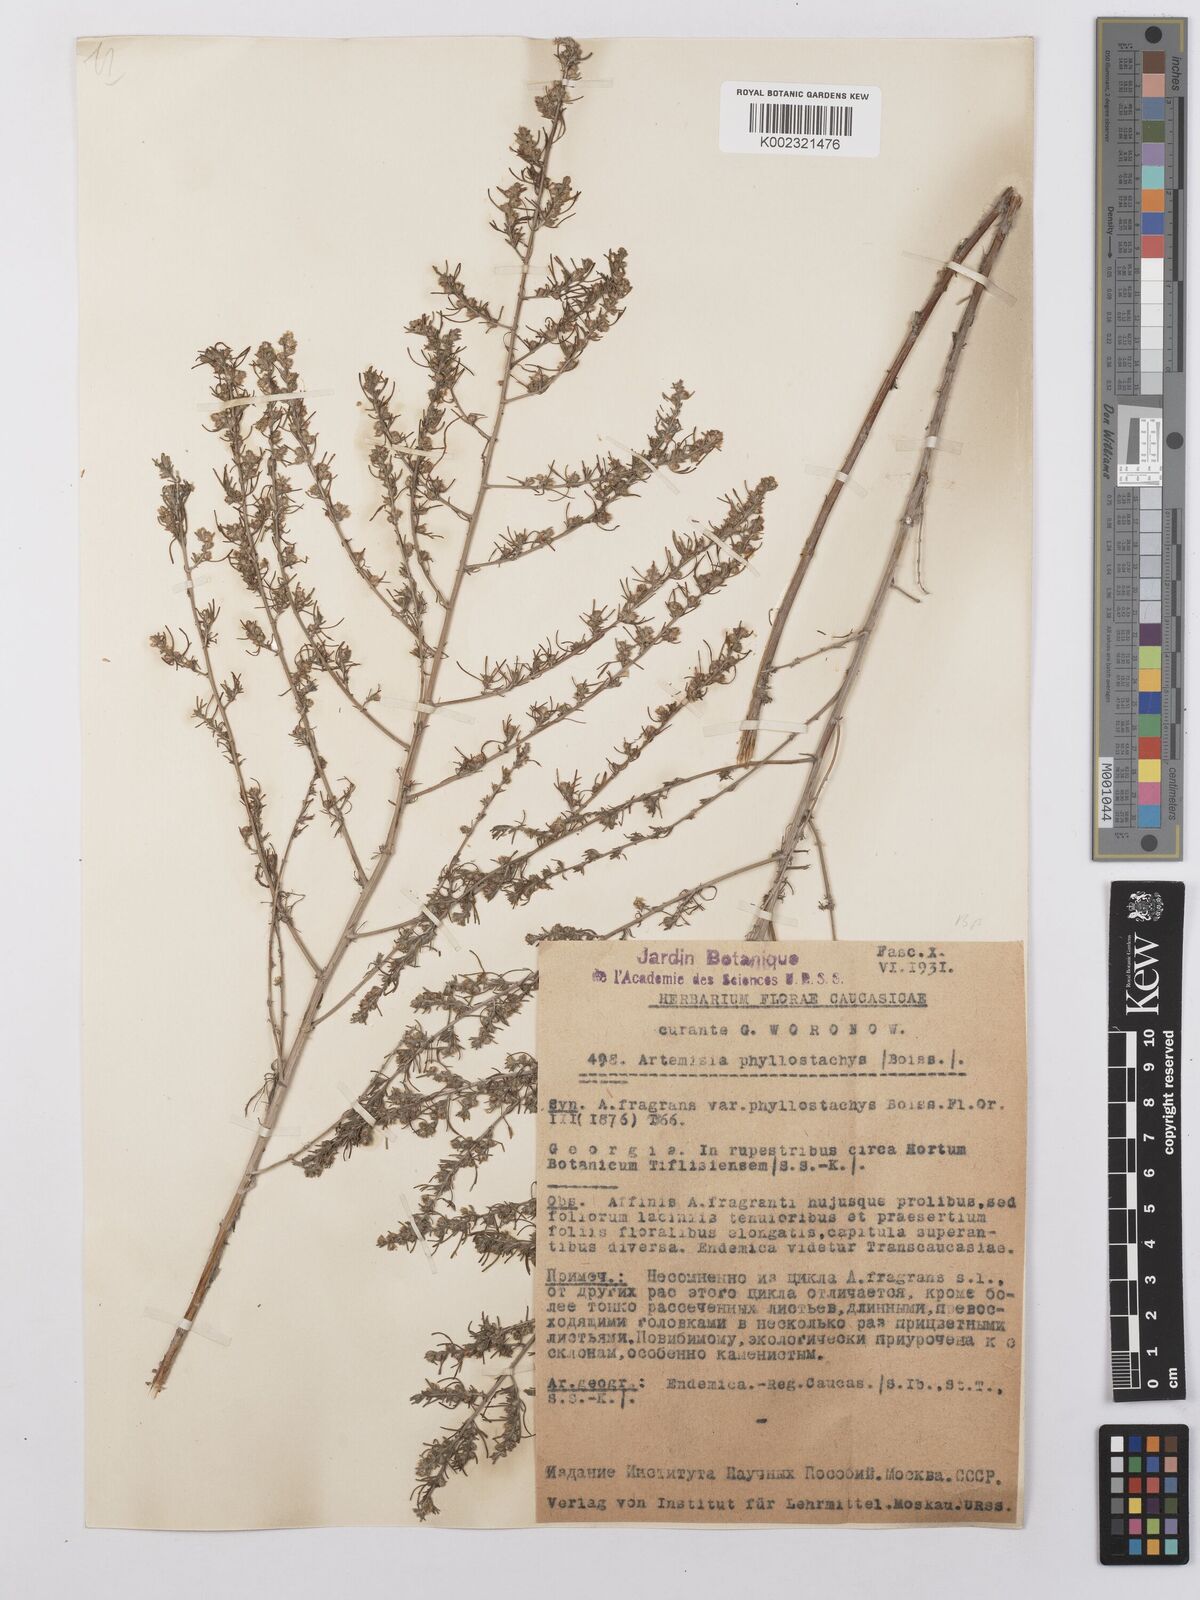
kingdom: Plantae
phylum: Tracheophyta
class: Magnoliopsida
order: Asterales
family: Asteraceae
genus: Artemisia
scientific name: Artemisia fragrans
